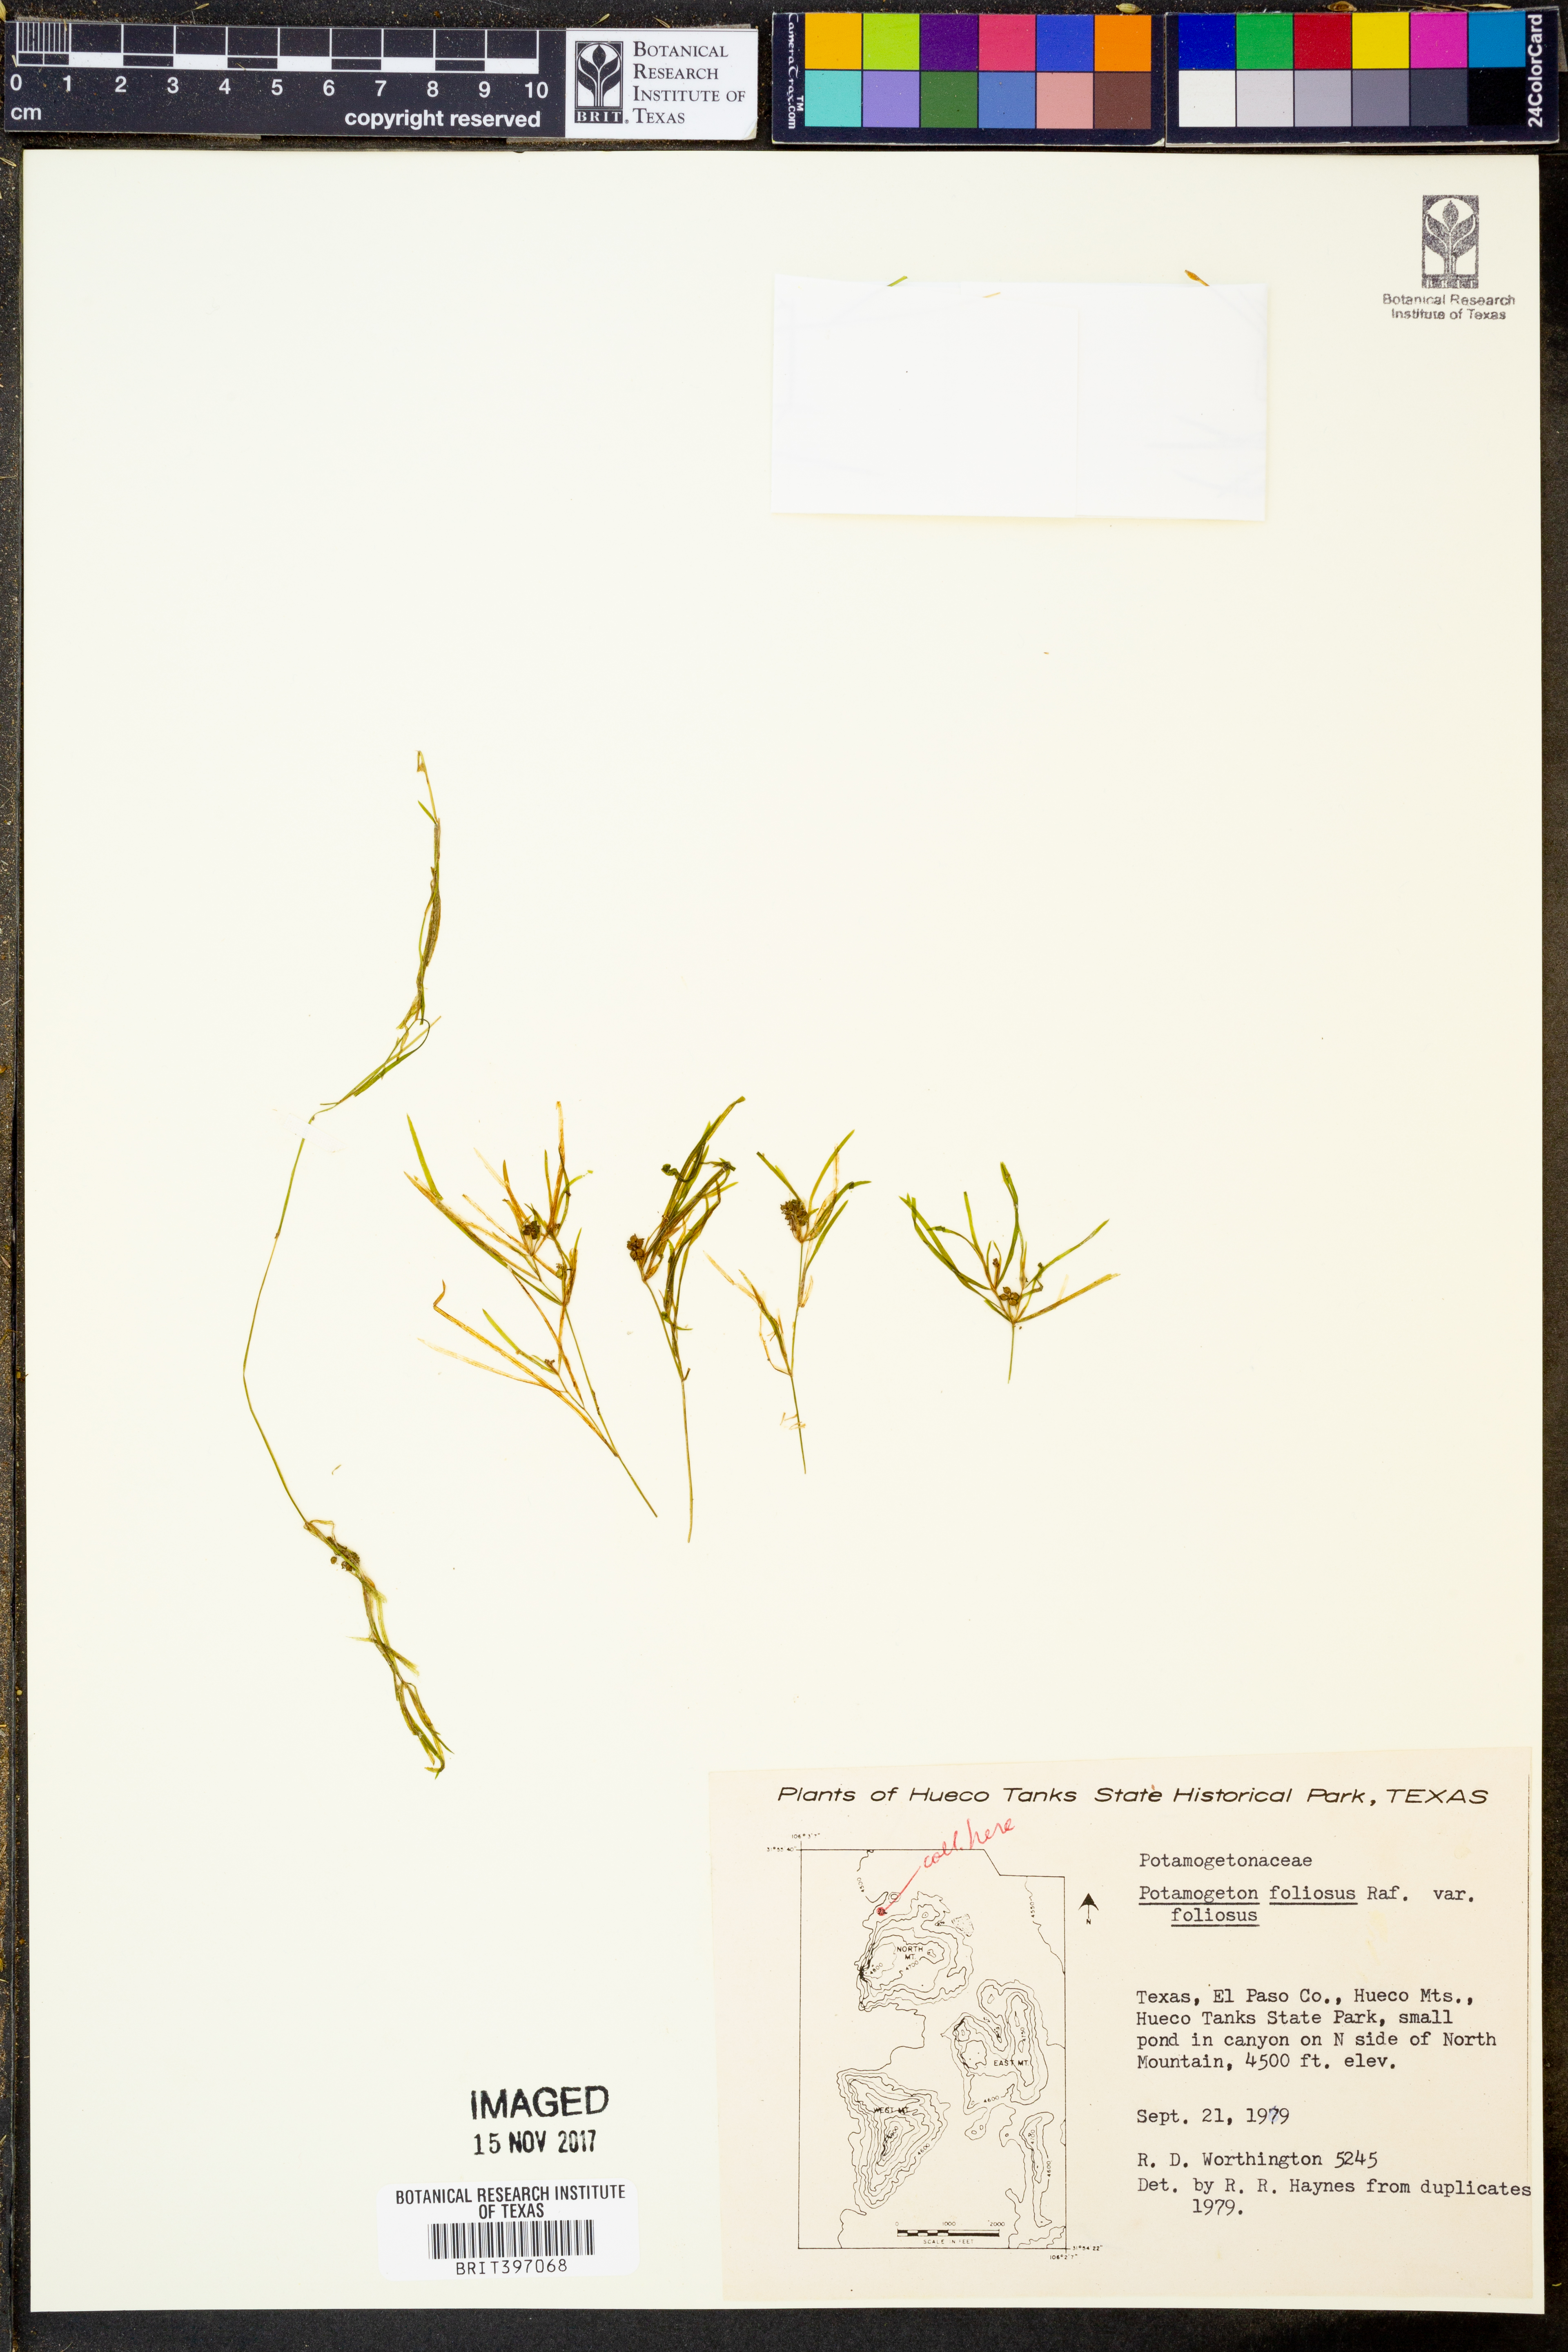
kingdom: Plantae
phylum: Tracheophyta
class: Liliopsida
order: Alismatales
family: Potamogetonaceae
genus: Potamogeton
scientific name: Potamogeton foliosus
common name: Leafy pondweed
